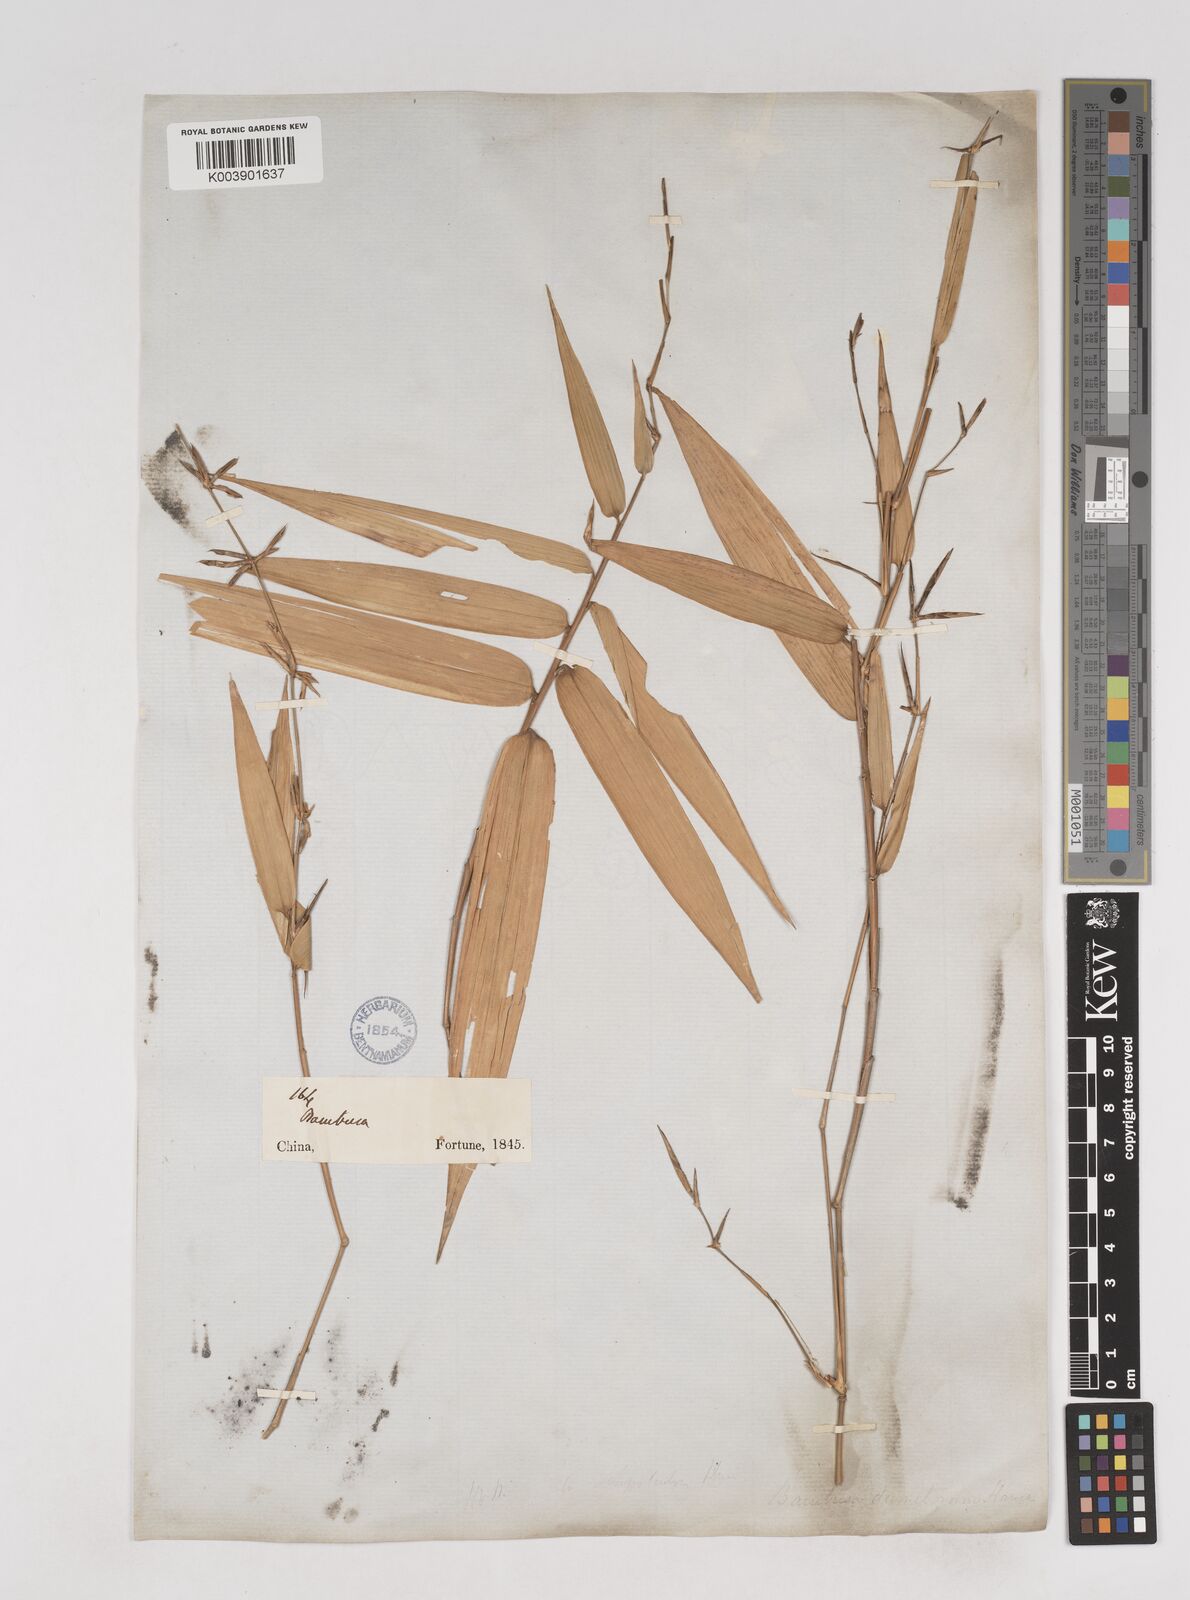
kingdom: Plantae
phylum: Tracheophyta
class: Liliopsida
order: Poales
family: Poaceae
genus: Schizostachyum
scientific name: Schizostachyum dumetorum
